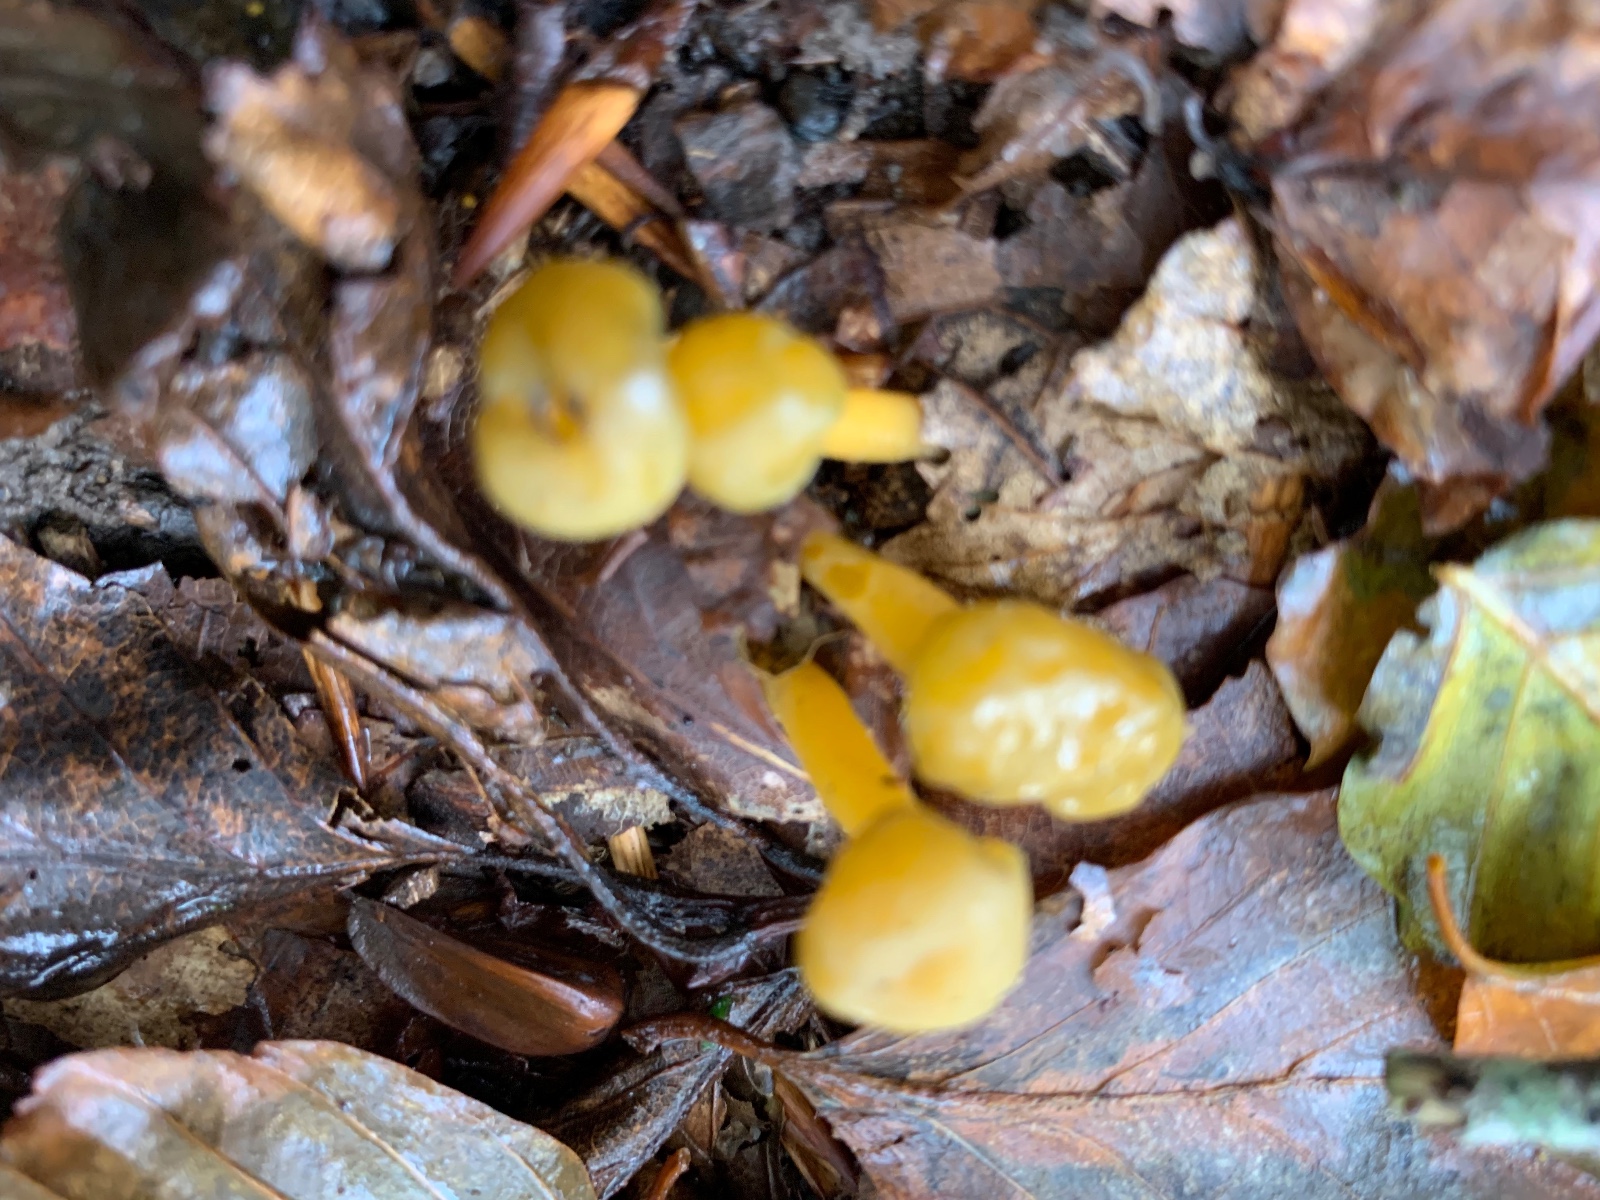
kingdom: Fungi
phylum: Ascomycota
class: Leotiomycetes
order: Leotiales
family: Leotiaceae
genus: Leotia
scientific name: Leotia lubrica
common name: ravsvamp
